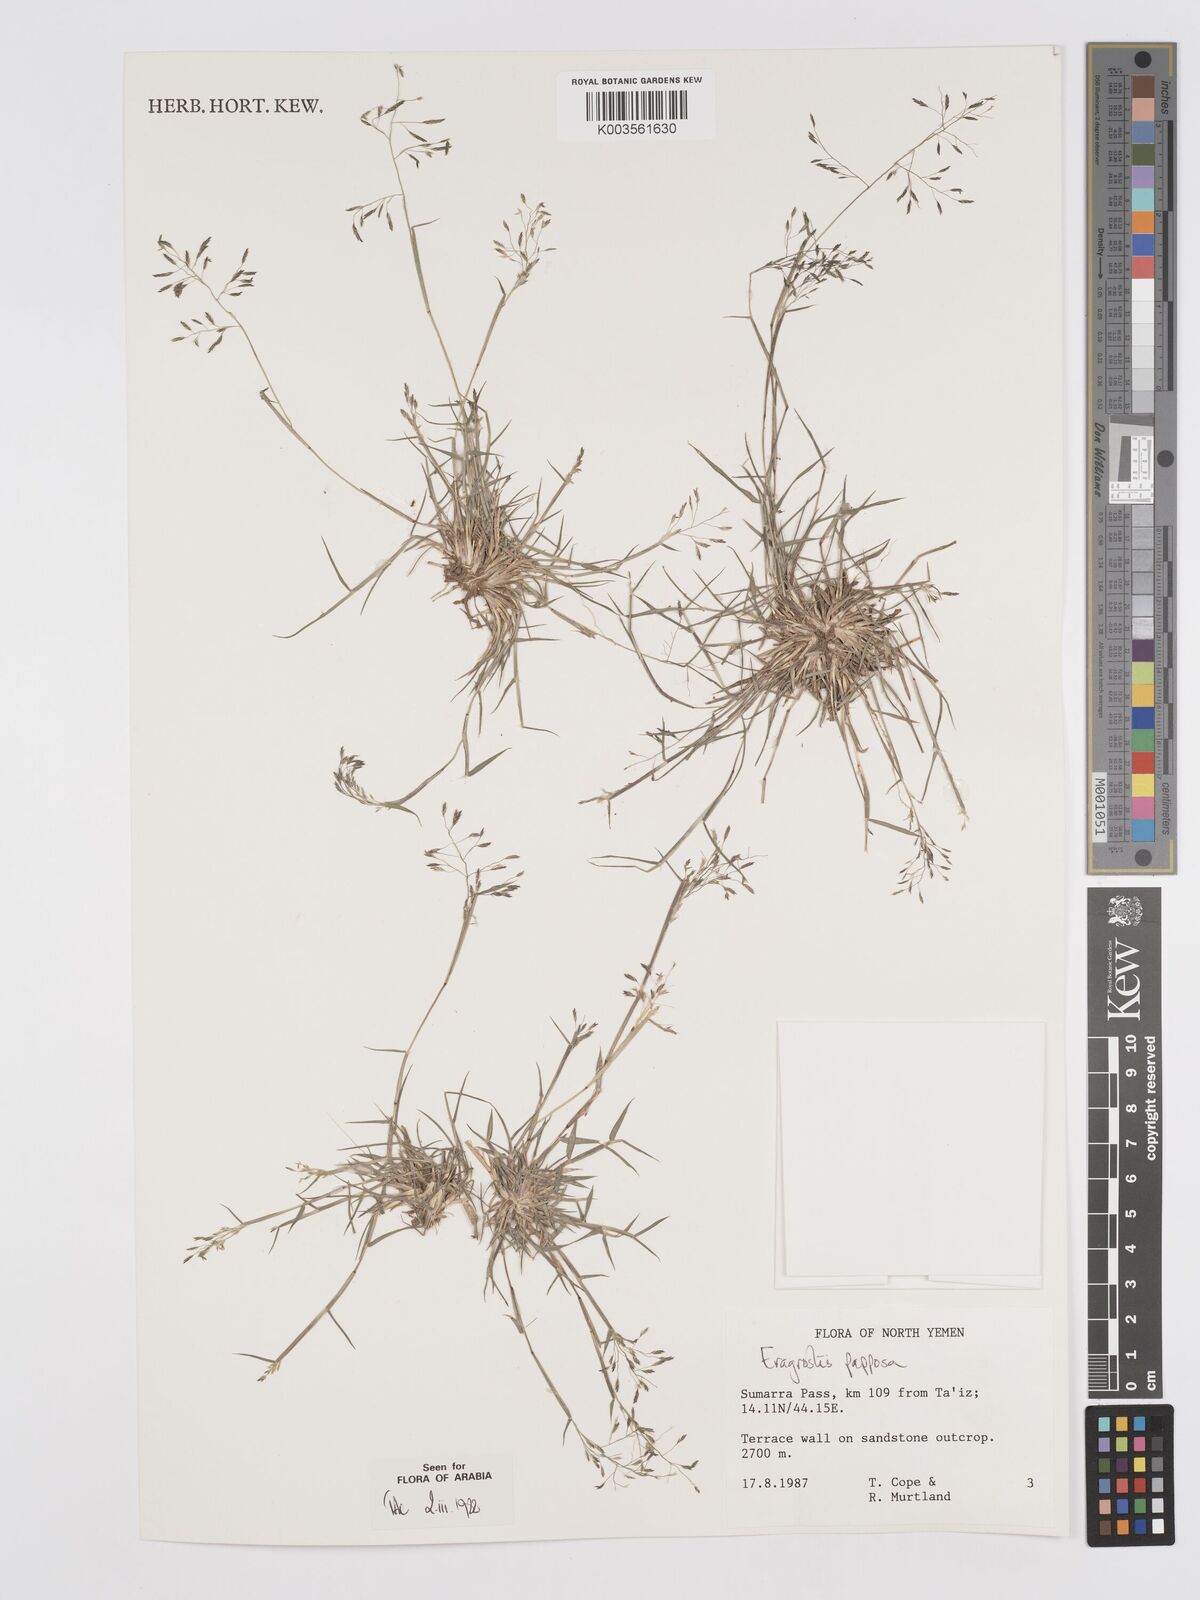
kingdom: Plantae
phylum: Tracheophyta
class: Liliopsida
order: Poales
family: Poaceae
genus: Eragrostis
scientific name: Eragrostis papposa
